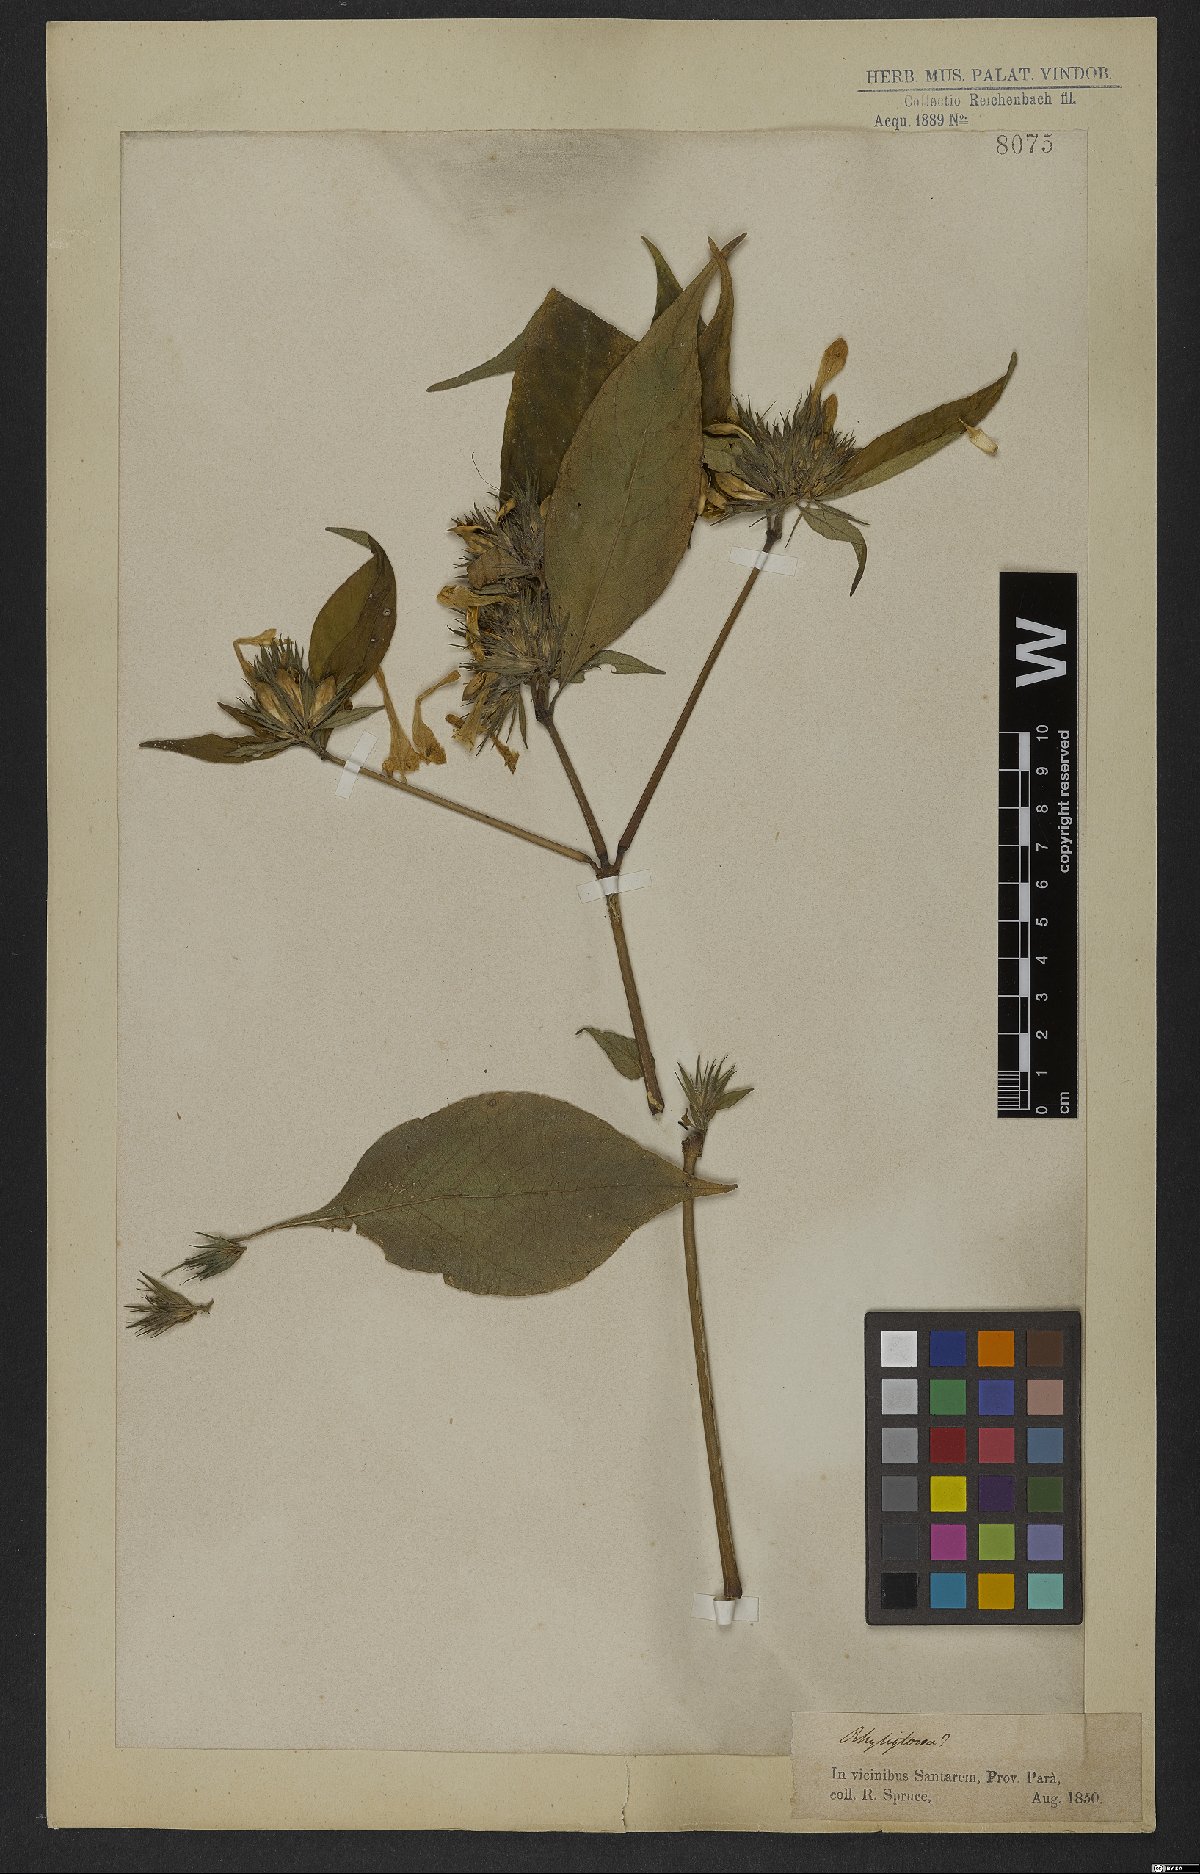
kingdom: Plantae
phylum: Tracheophyta
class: Magnoliopsida
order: Lamiales
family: Acanthaceae
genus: Justicia
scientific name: Justicia
